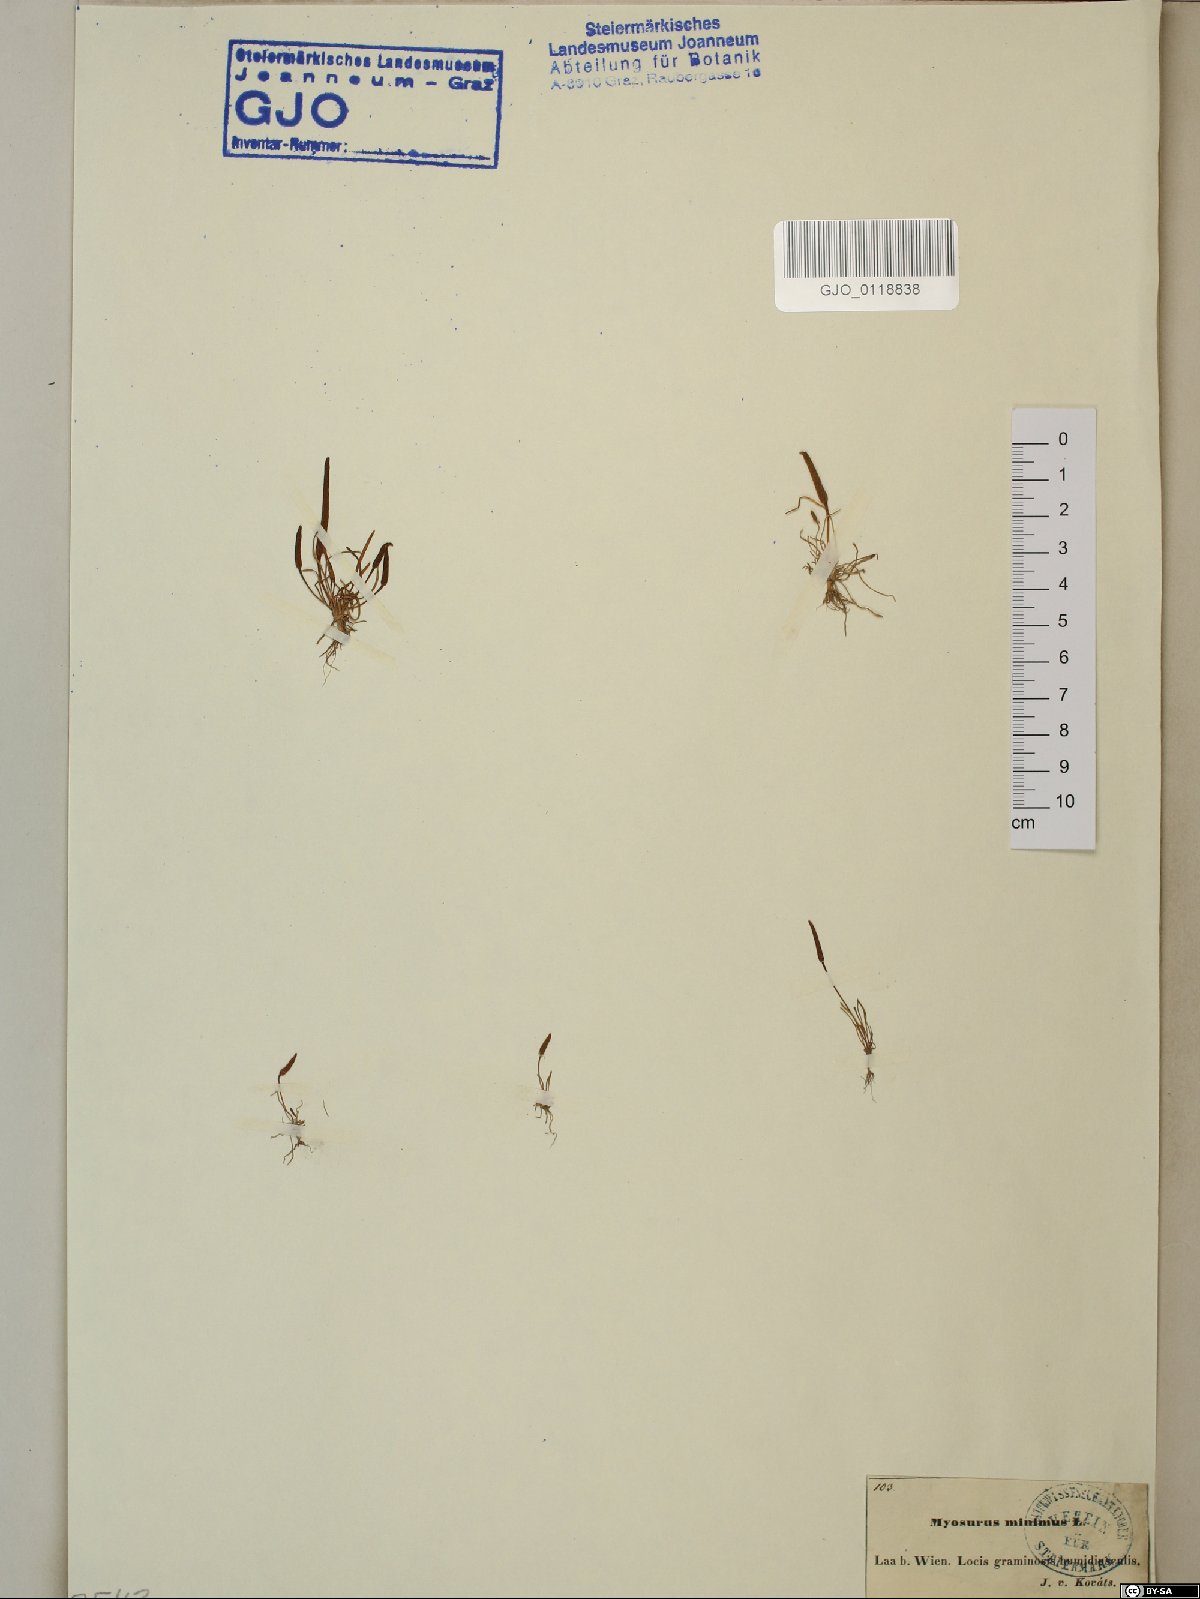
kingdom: Plantae
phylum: Tracheophyta
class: Magnoliopsida
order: Ranunculales
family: Ranunculaceae
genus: Myosurus
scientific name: Myosurus minimus
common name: Mousetail
